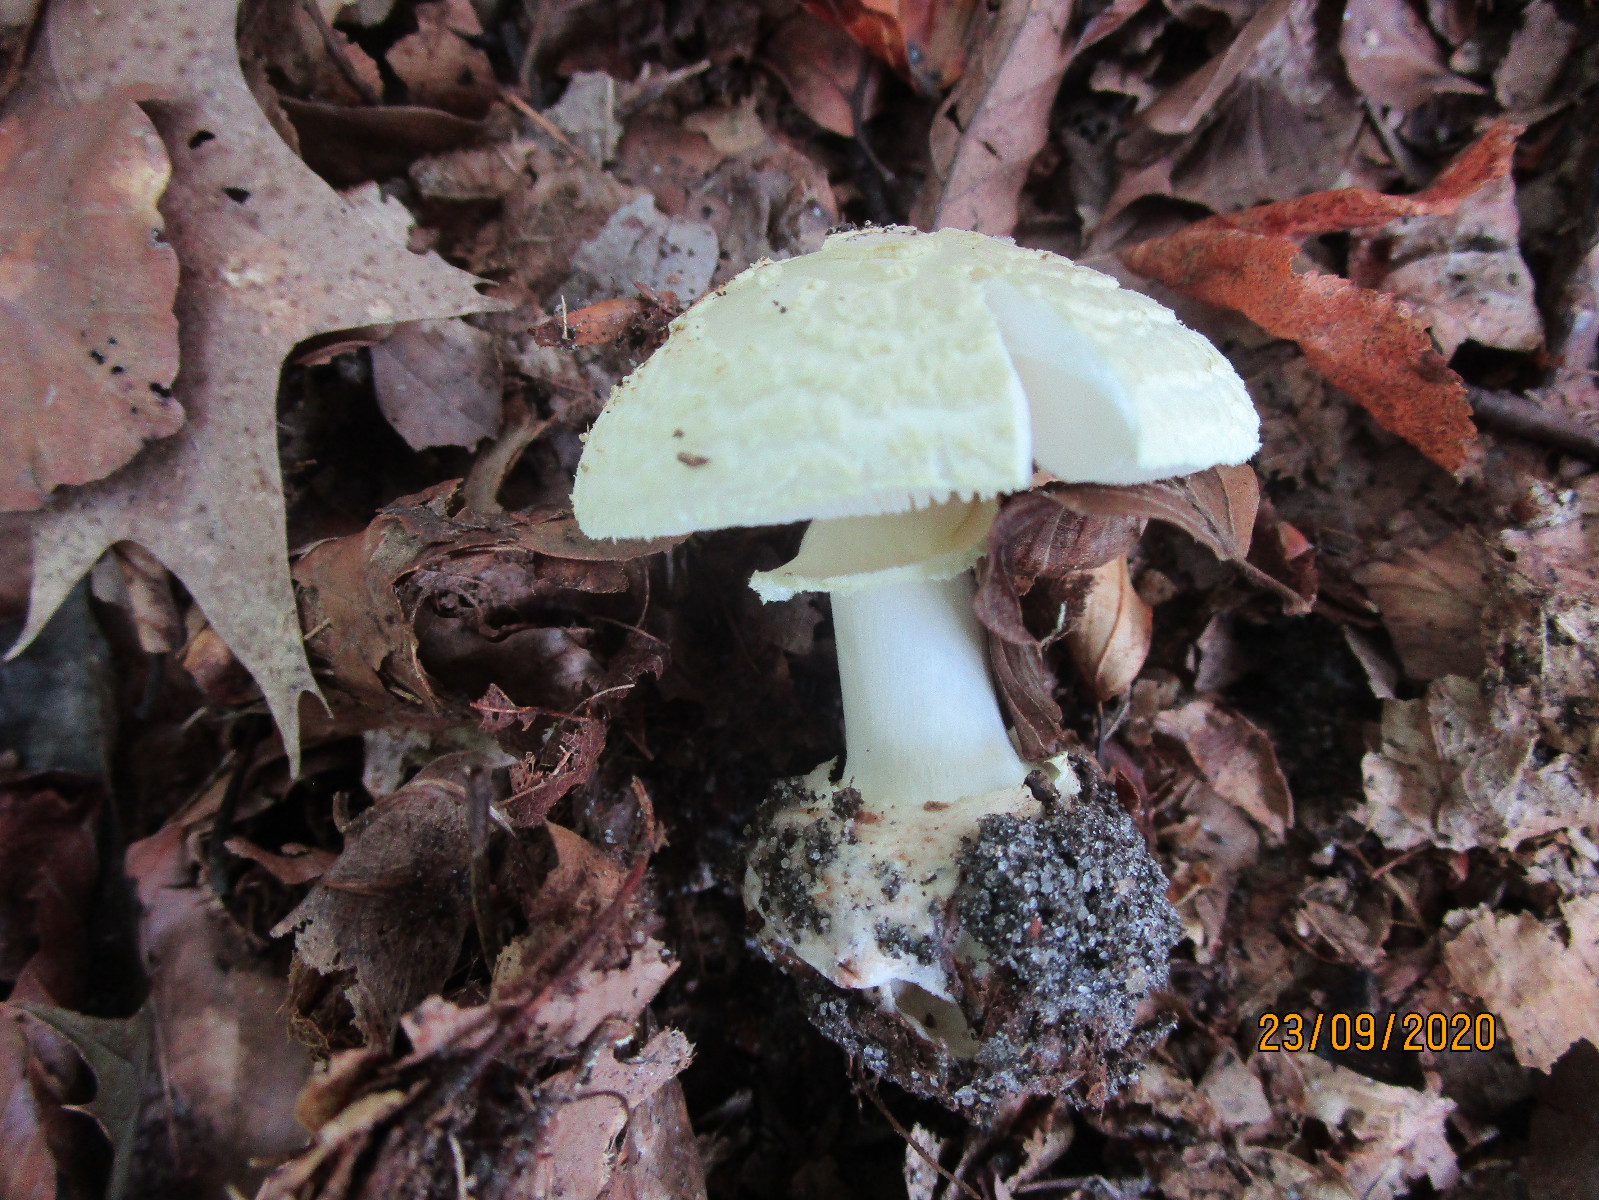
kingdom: Fungi
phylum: Basidiomycota
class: Agaricomycetes
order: Agaricales
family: Amanitaceae
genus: Amanita
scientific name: Amanita citrina
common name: kugleknoldet fluesvamp
